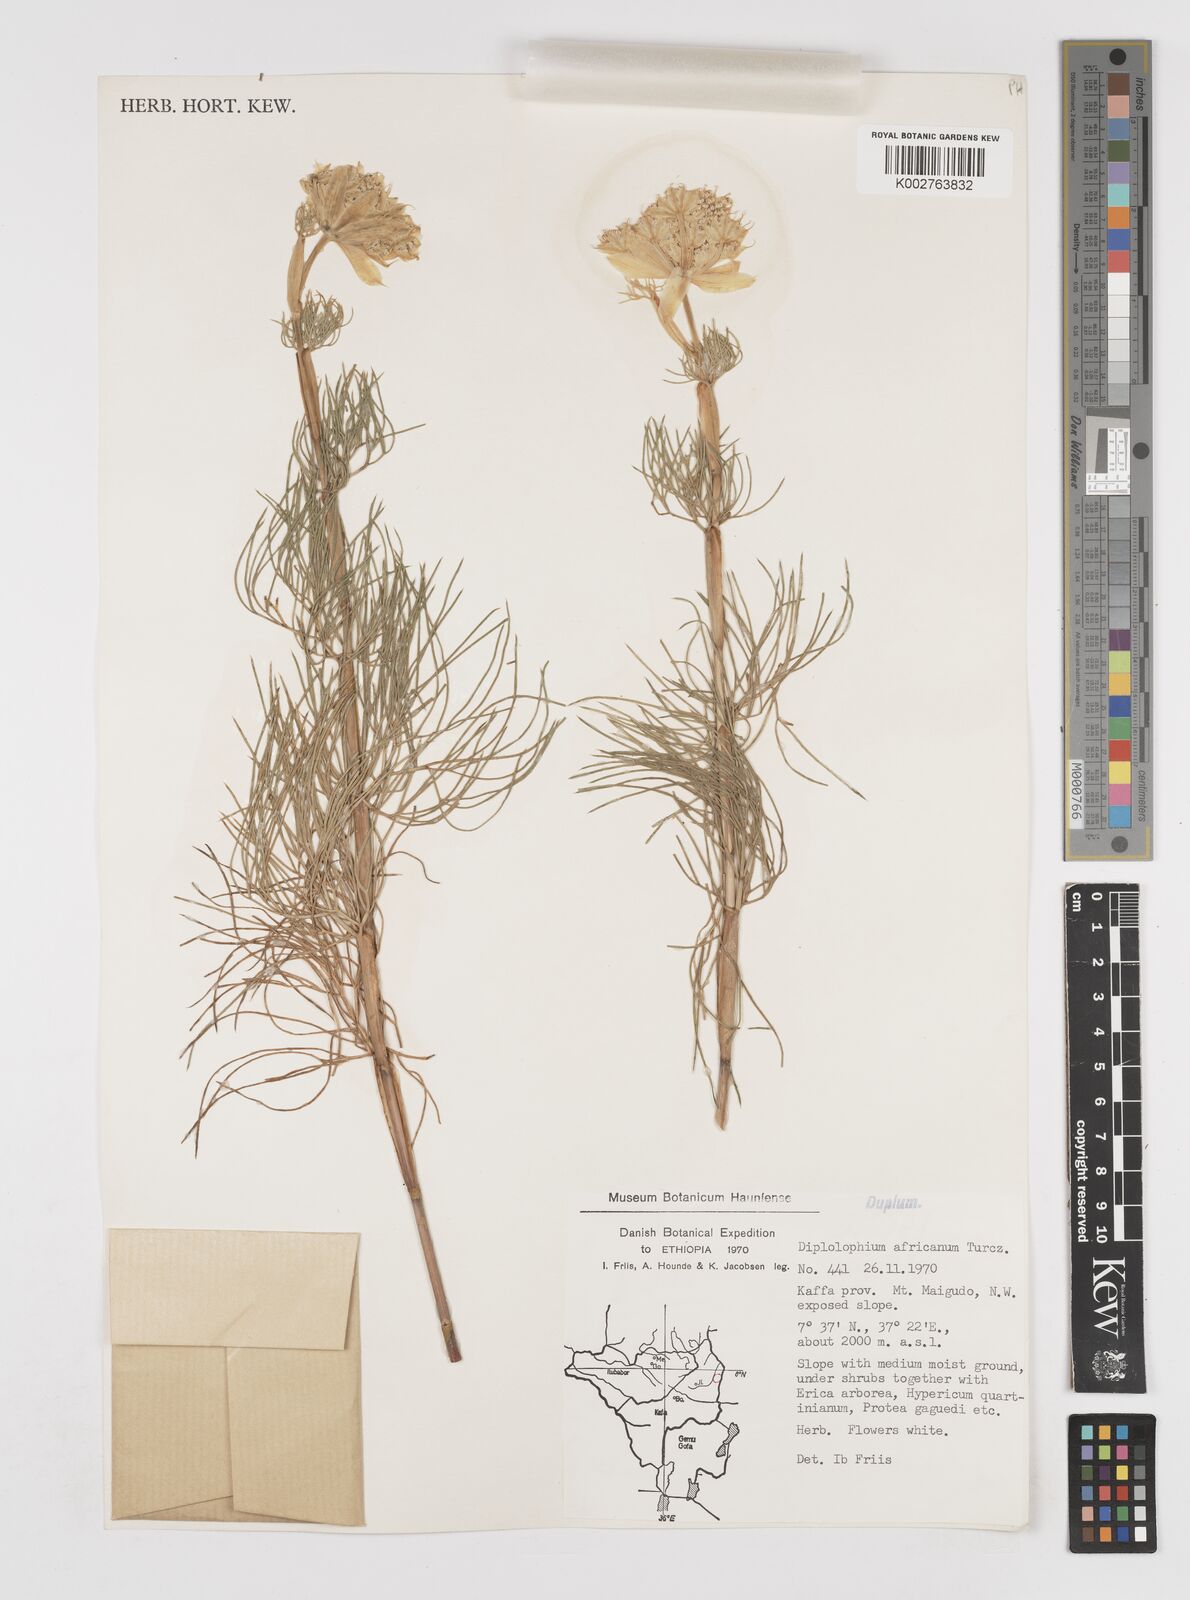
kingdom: Plantae
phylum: Tracheophyta
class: Magnoliopsida
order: Apiales
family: Apiaceae
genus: Diplolophium
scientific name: Diplolophium africanum
